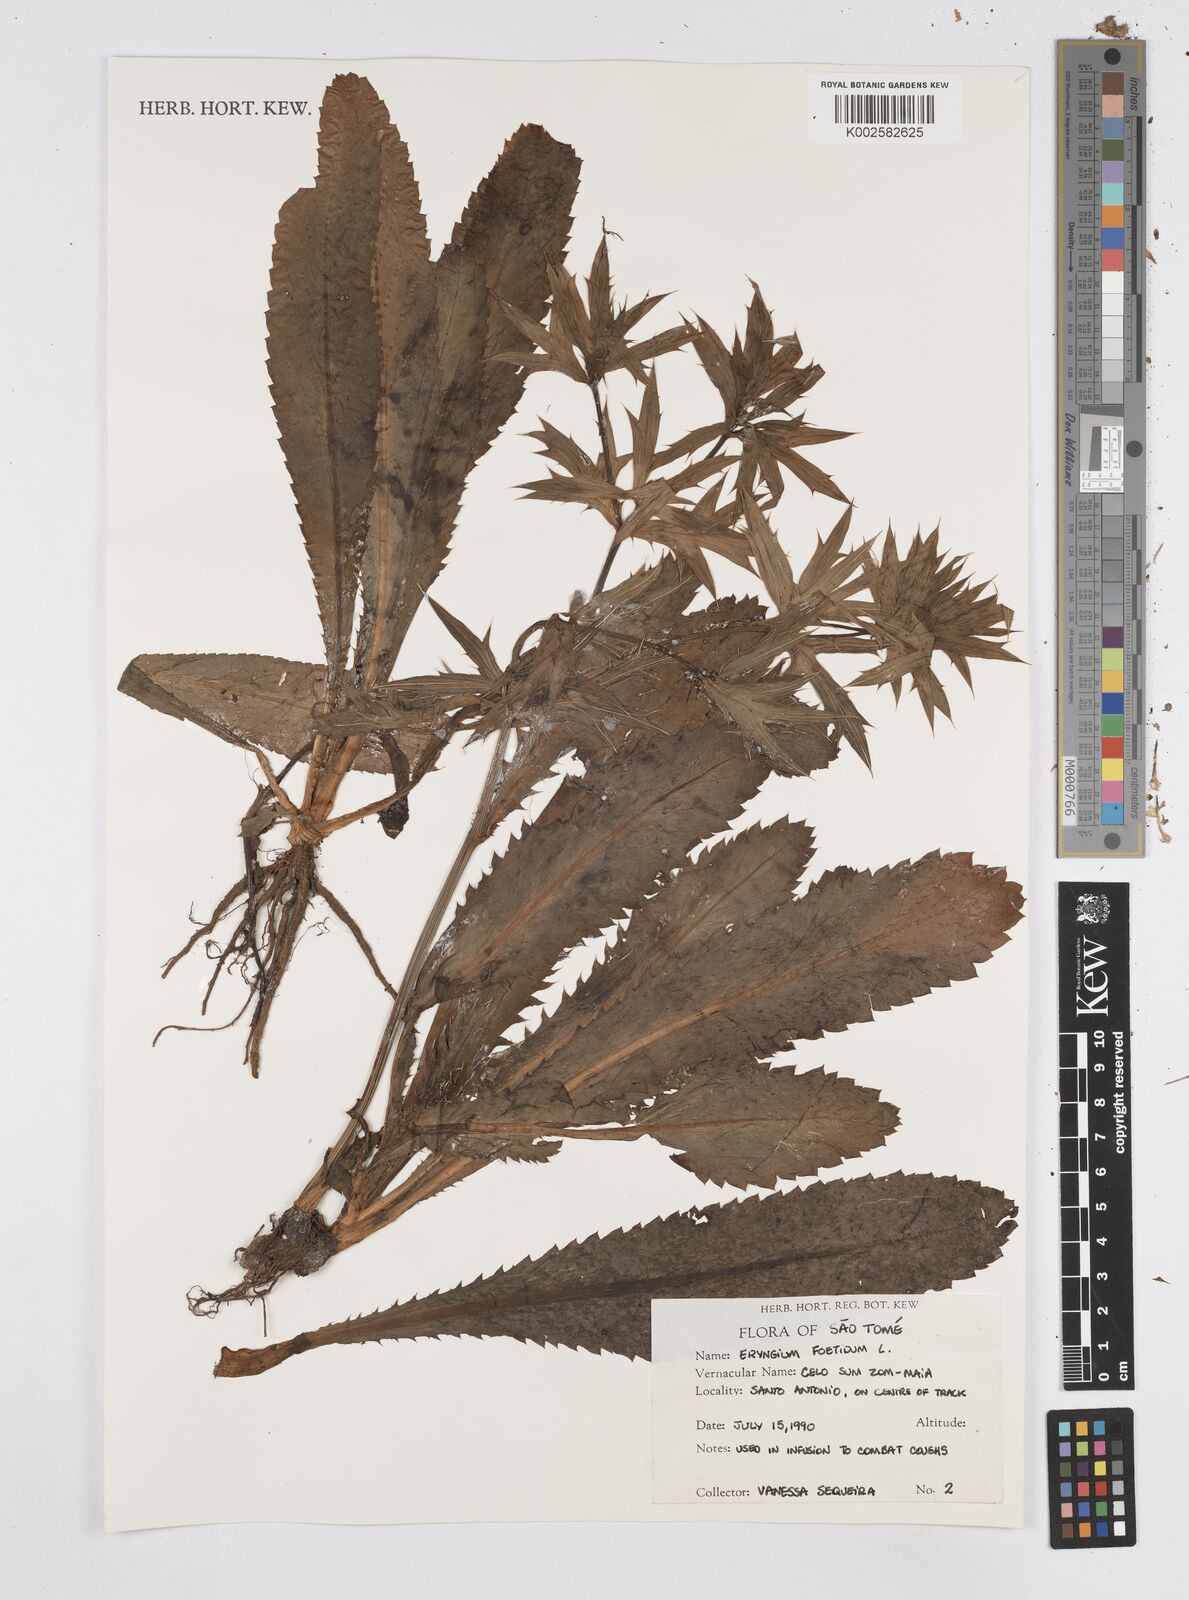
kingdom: Plantae
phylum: Tracheophyta
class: Magnoliopsida
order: Apiales
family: Apiaceae
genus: Eryngium
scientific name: Eryngium foetidum
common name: Fitweed
